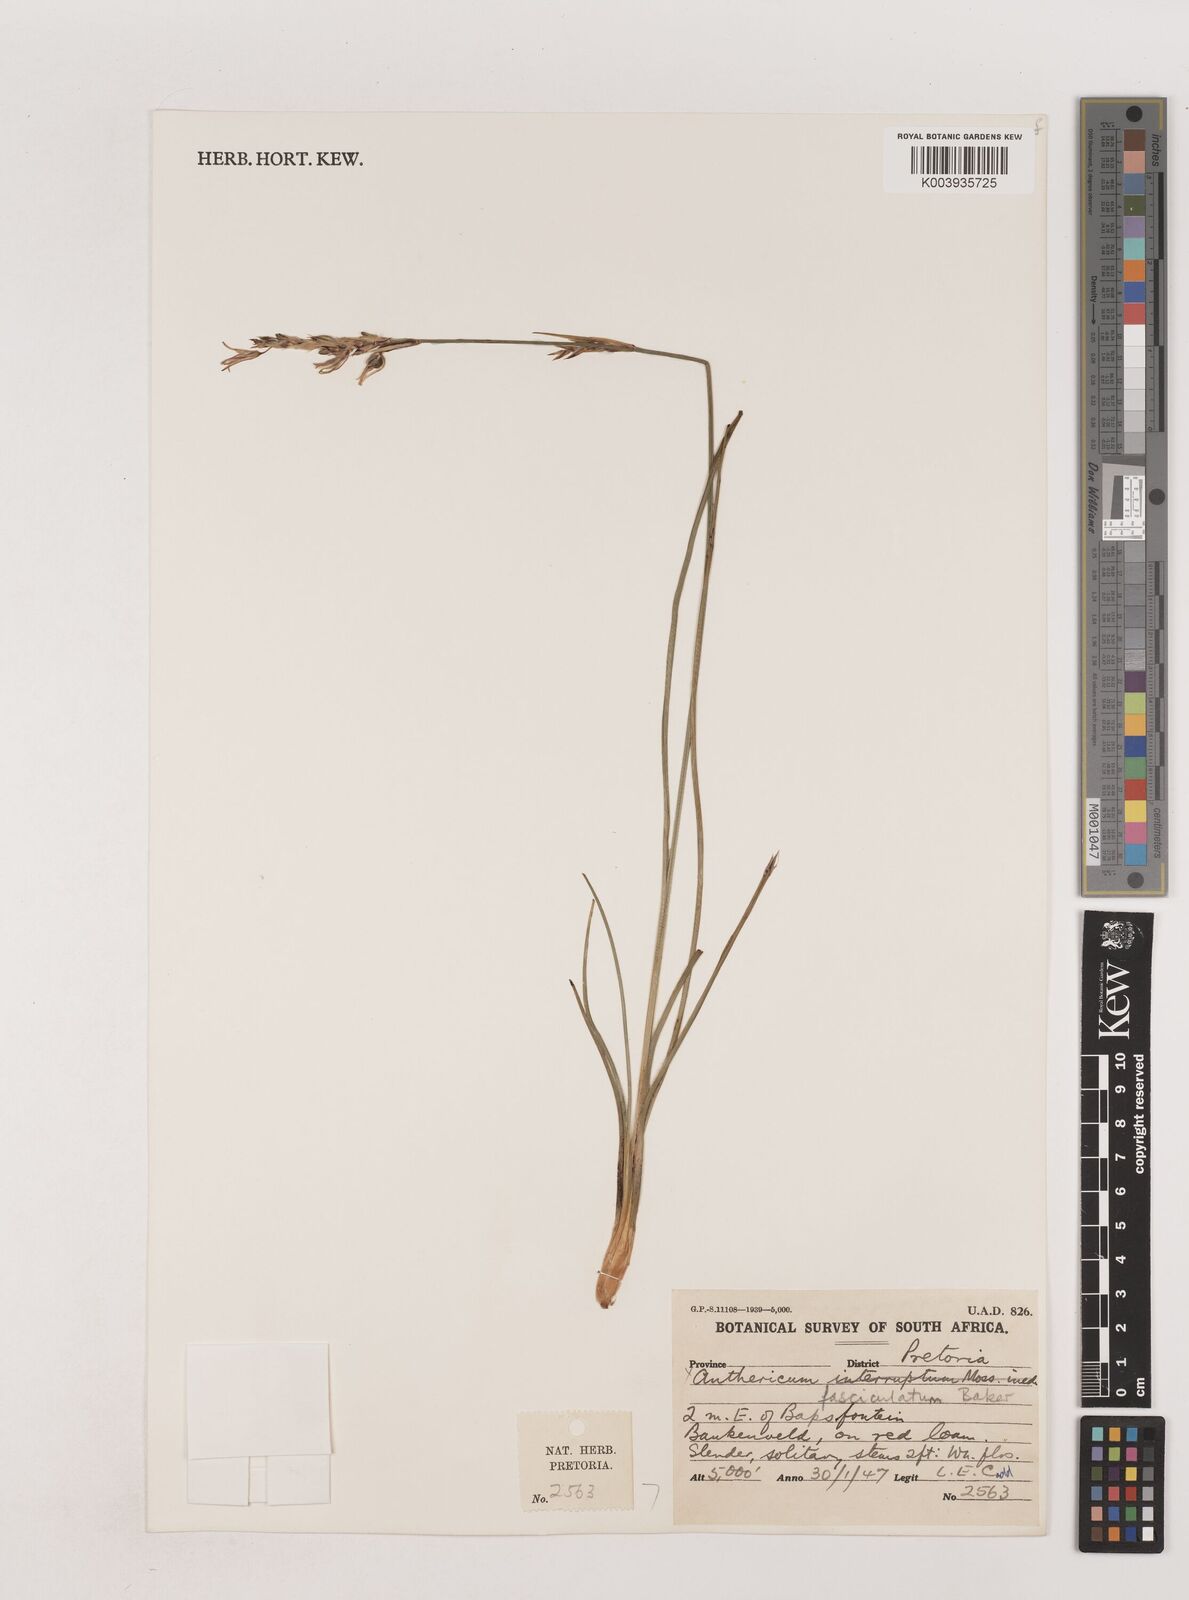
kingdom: Plantae
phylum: Tracheophyta
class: Liliopsida
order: Asparagales
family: Asparagaceae
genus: Chlorophytum
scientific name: Chlorophytum fasciculatum
